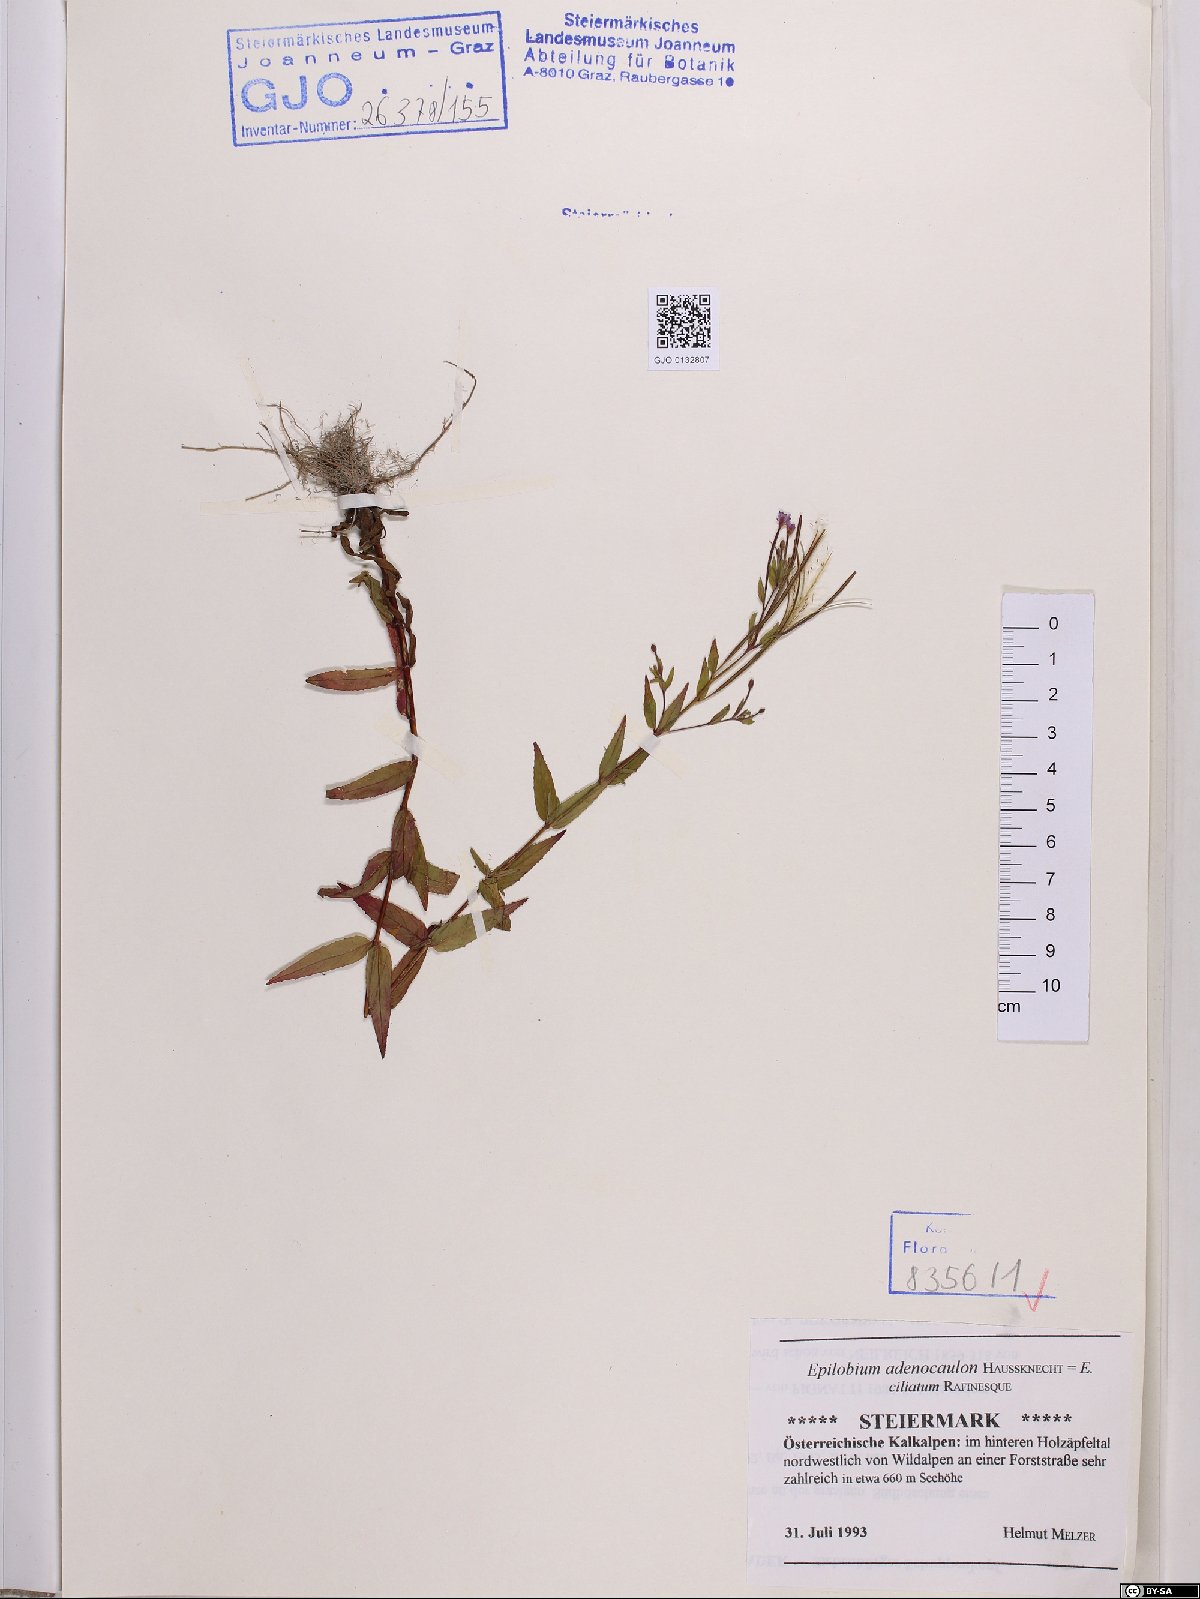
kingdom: Plantae
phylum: Tracheophyta
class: Magnoliopsida
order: Myrtales
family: Onagraceae
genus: Epilobium
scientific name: Epilobium ciliatum
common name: American willowherb
